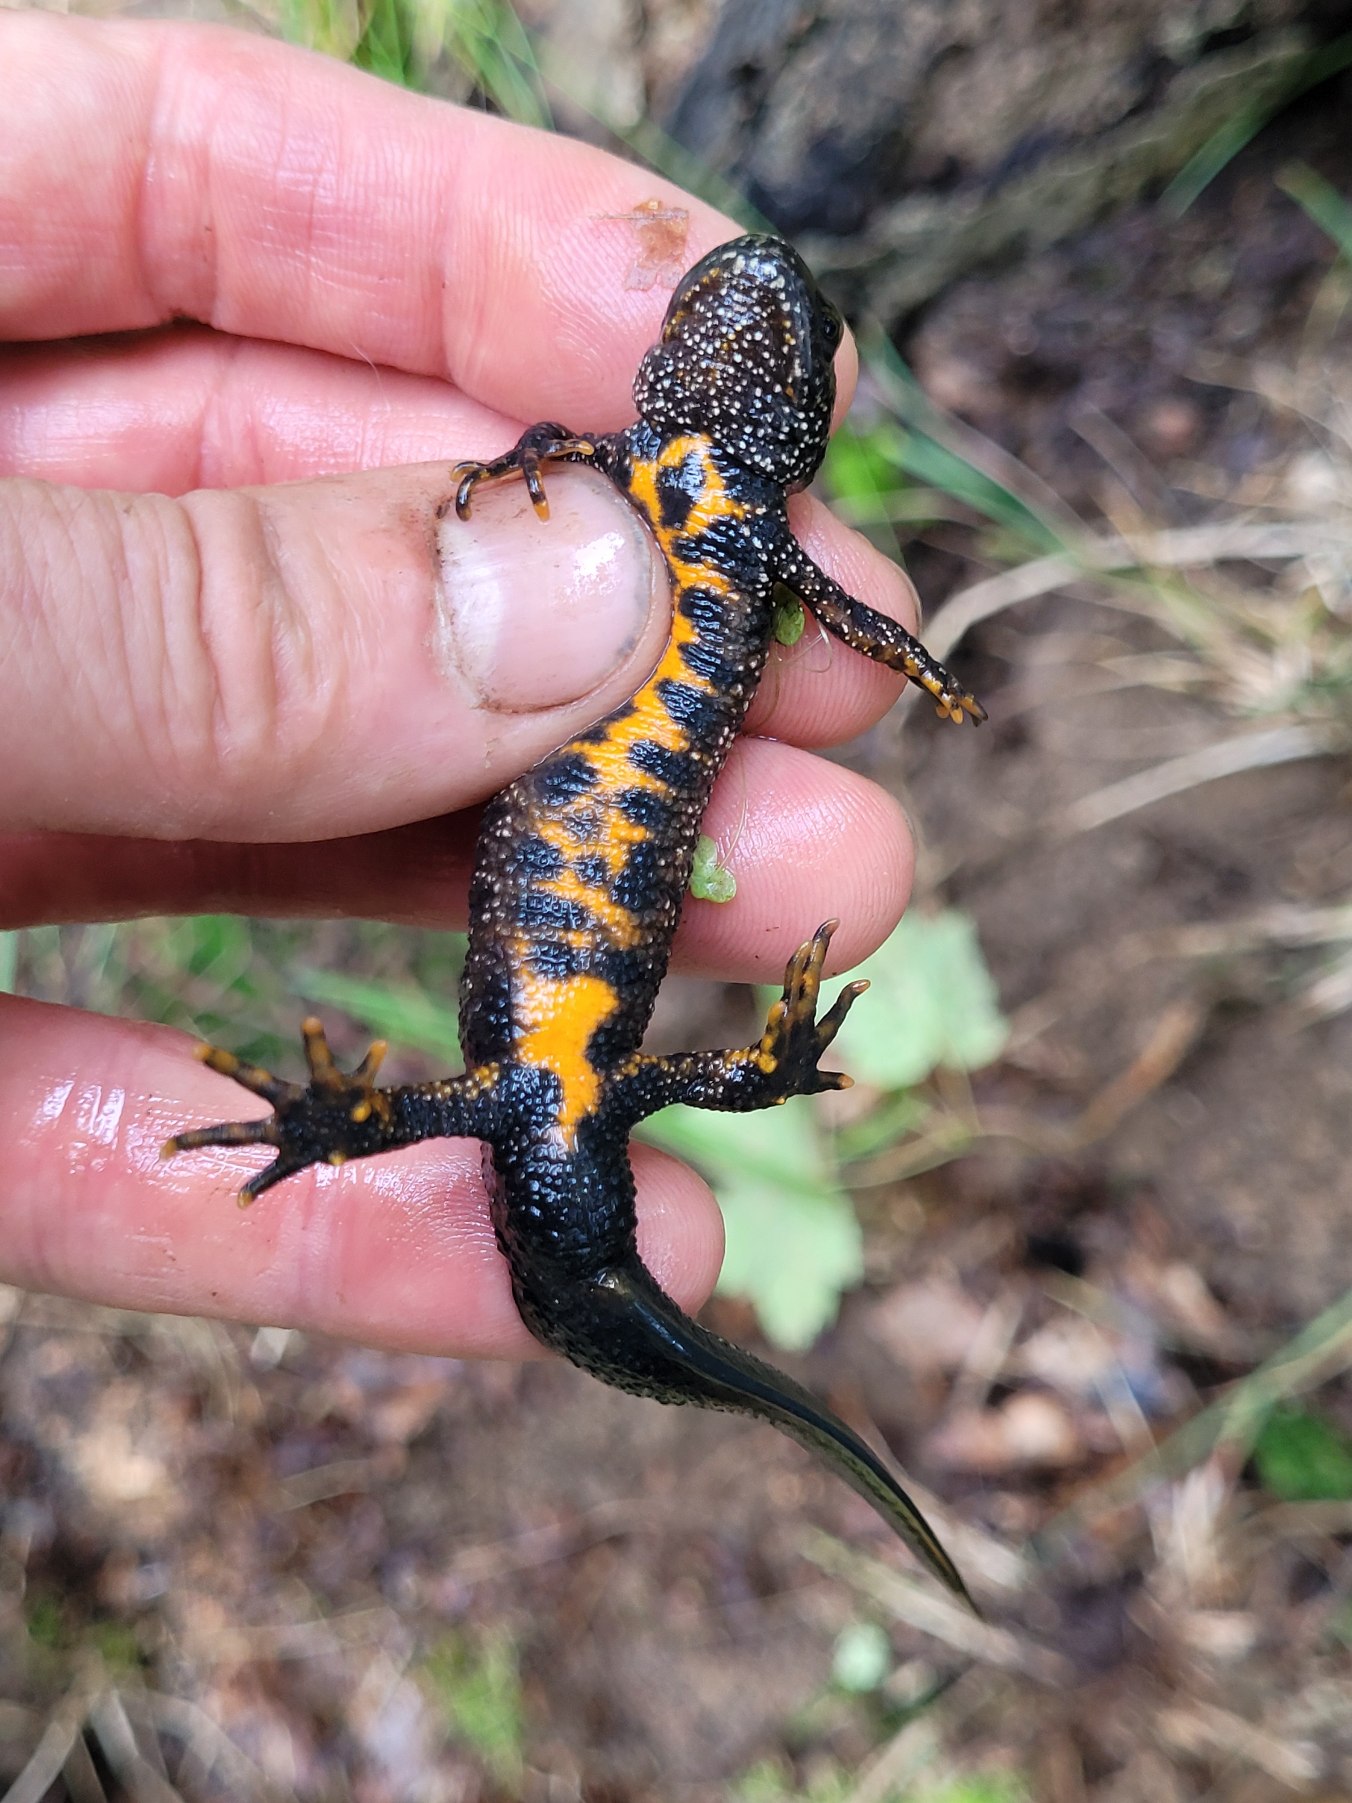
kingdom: Animalia
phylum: Chordata
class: Amphibia
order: Caudata
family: Salamandridae
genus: Triturus
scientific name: Triturus cristatus
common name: Stor vandsalamander
